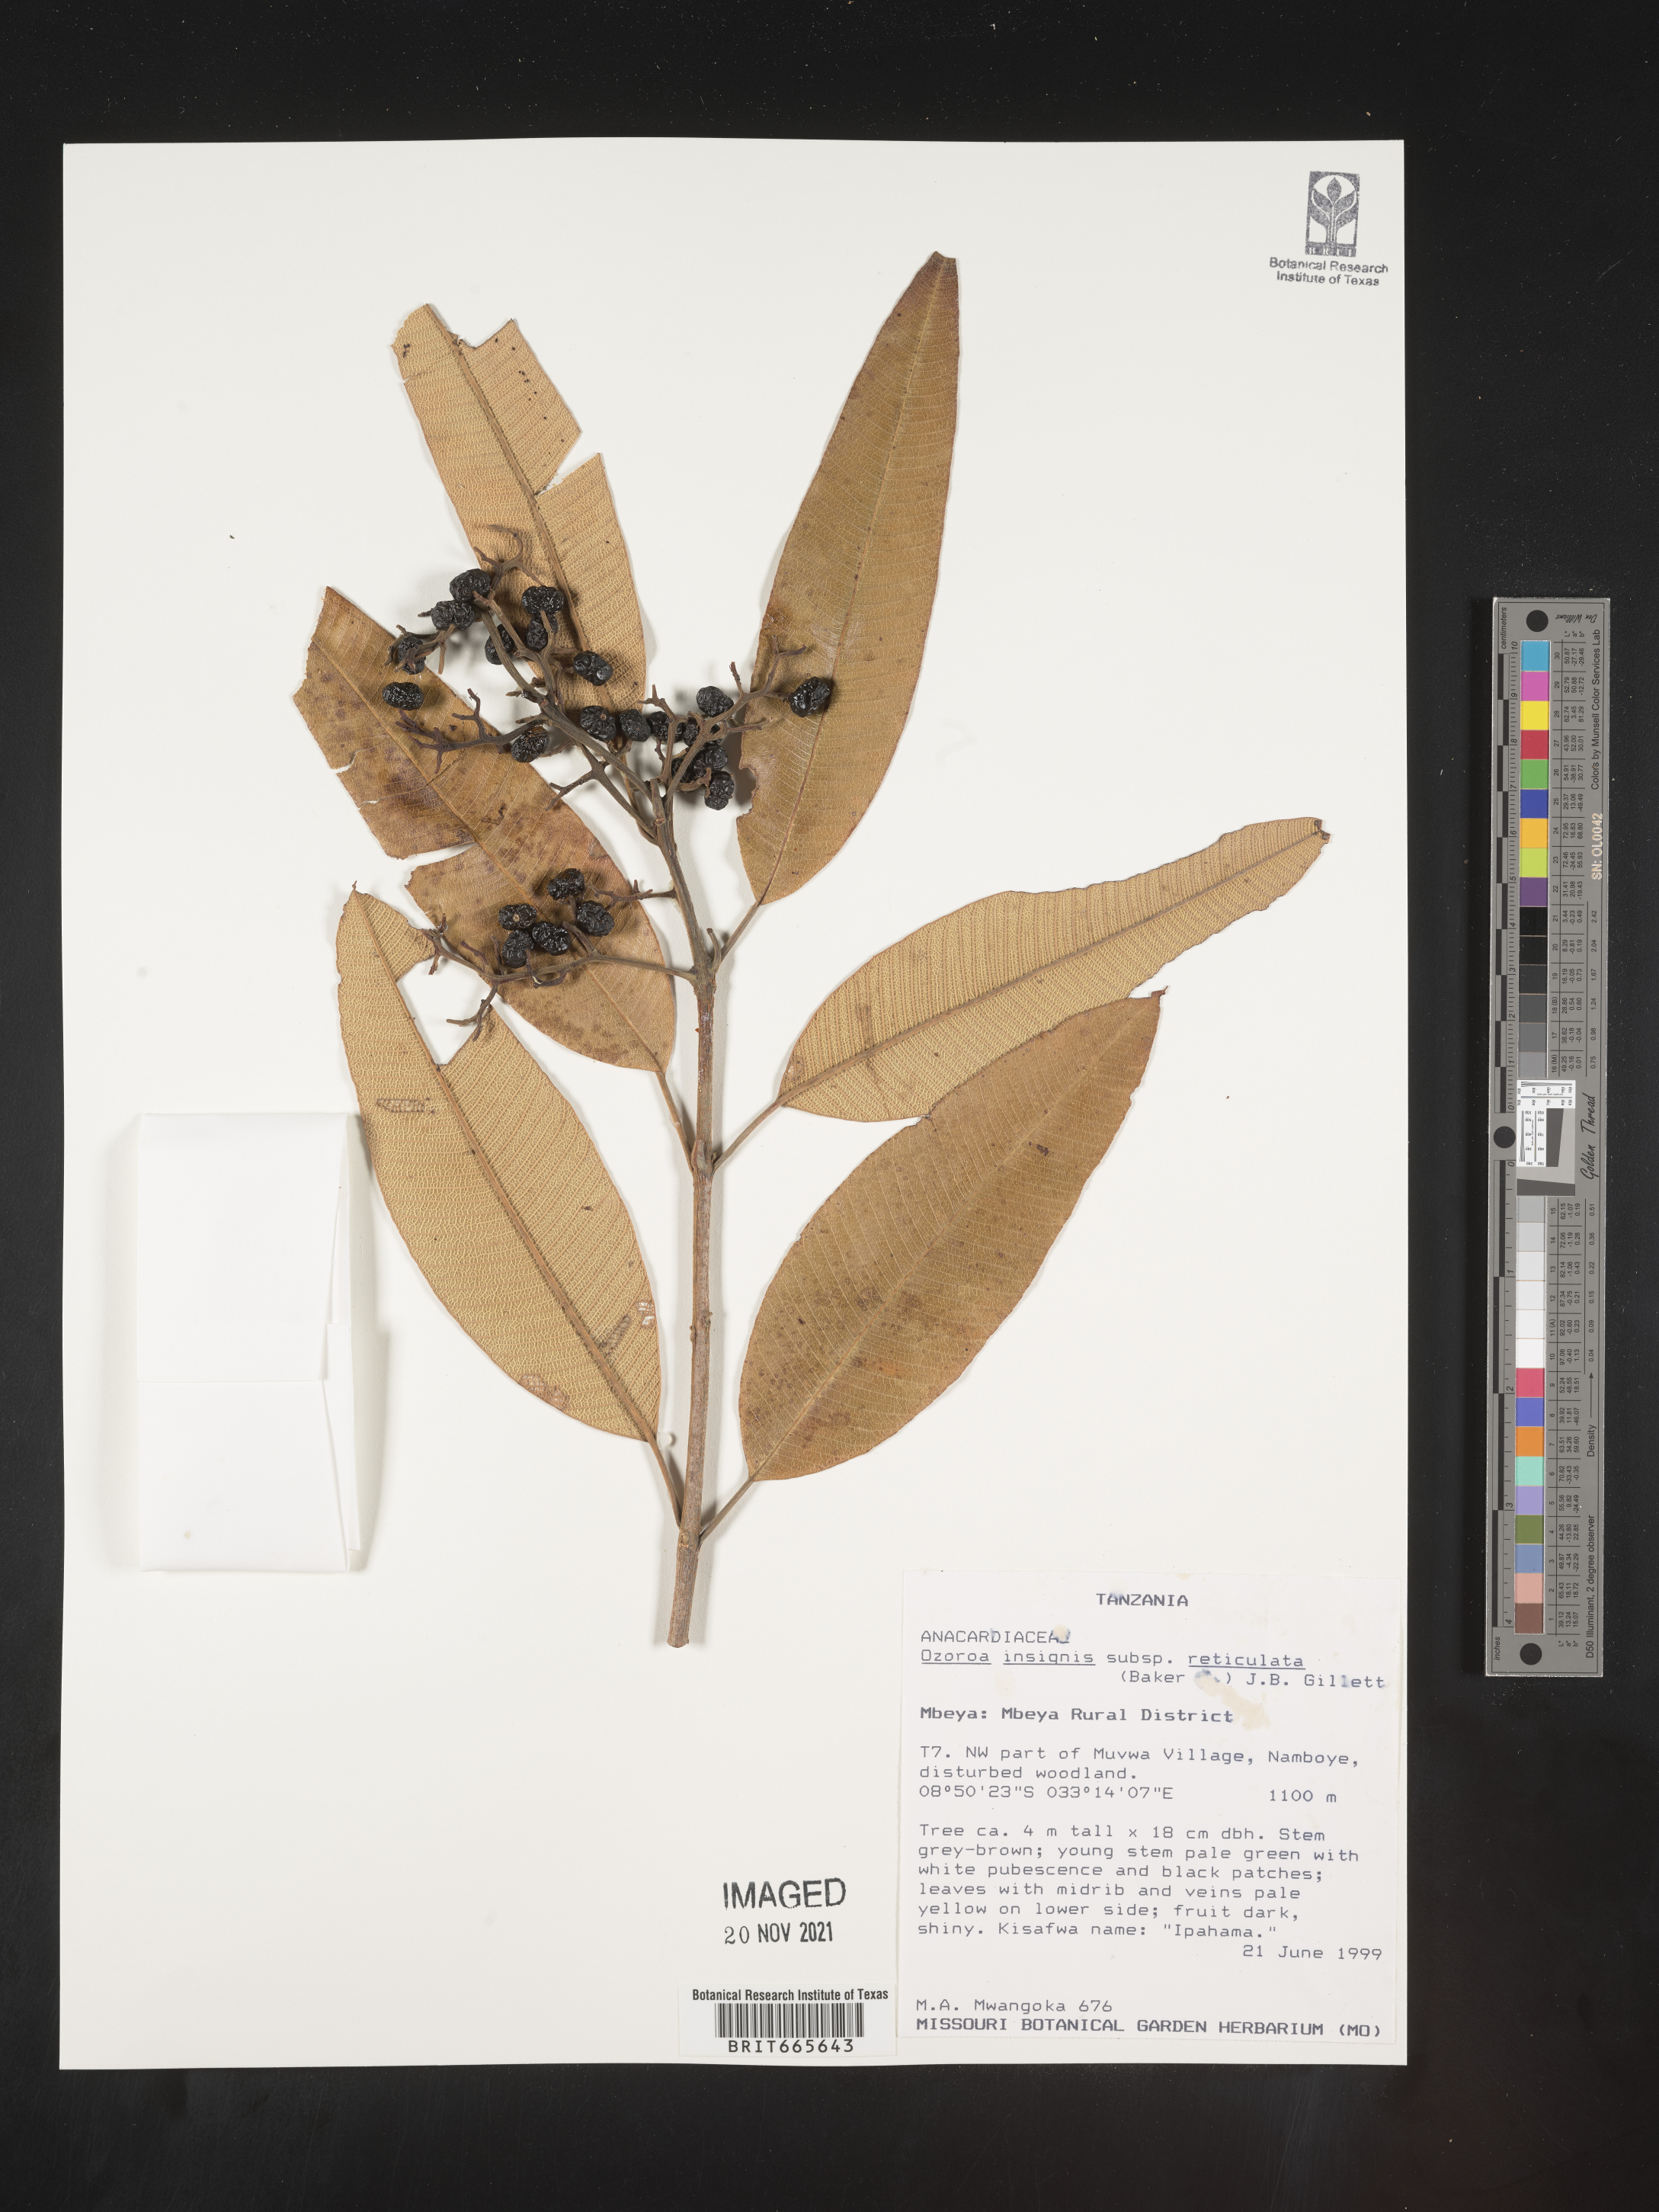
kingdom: Plantae
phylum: Tracheophyta
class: Magnoliopsida
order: Sapindales
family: Anacardiaceae
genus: Ozoroa
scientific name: Ozoroa
